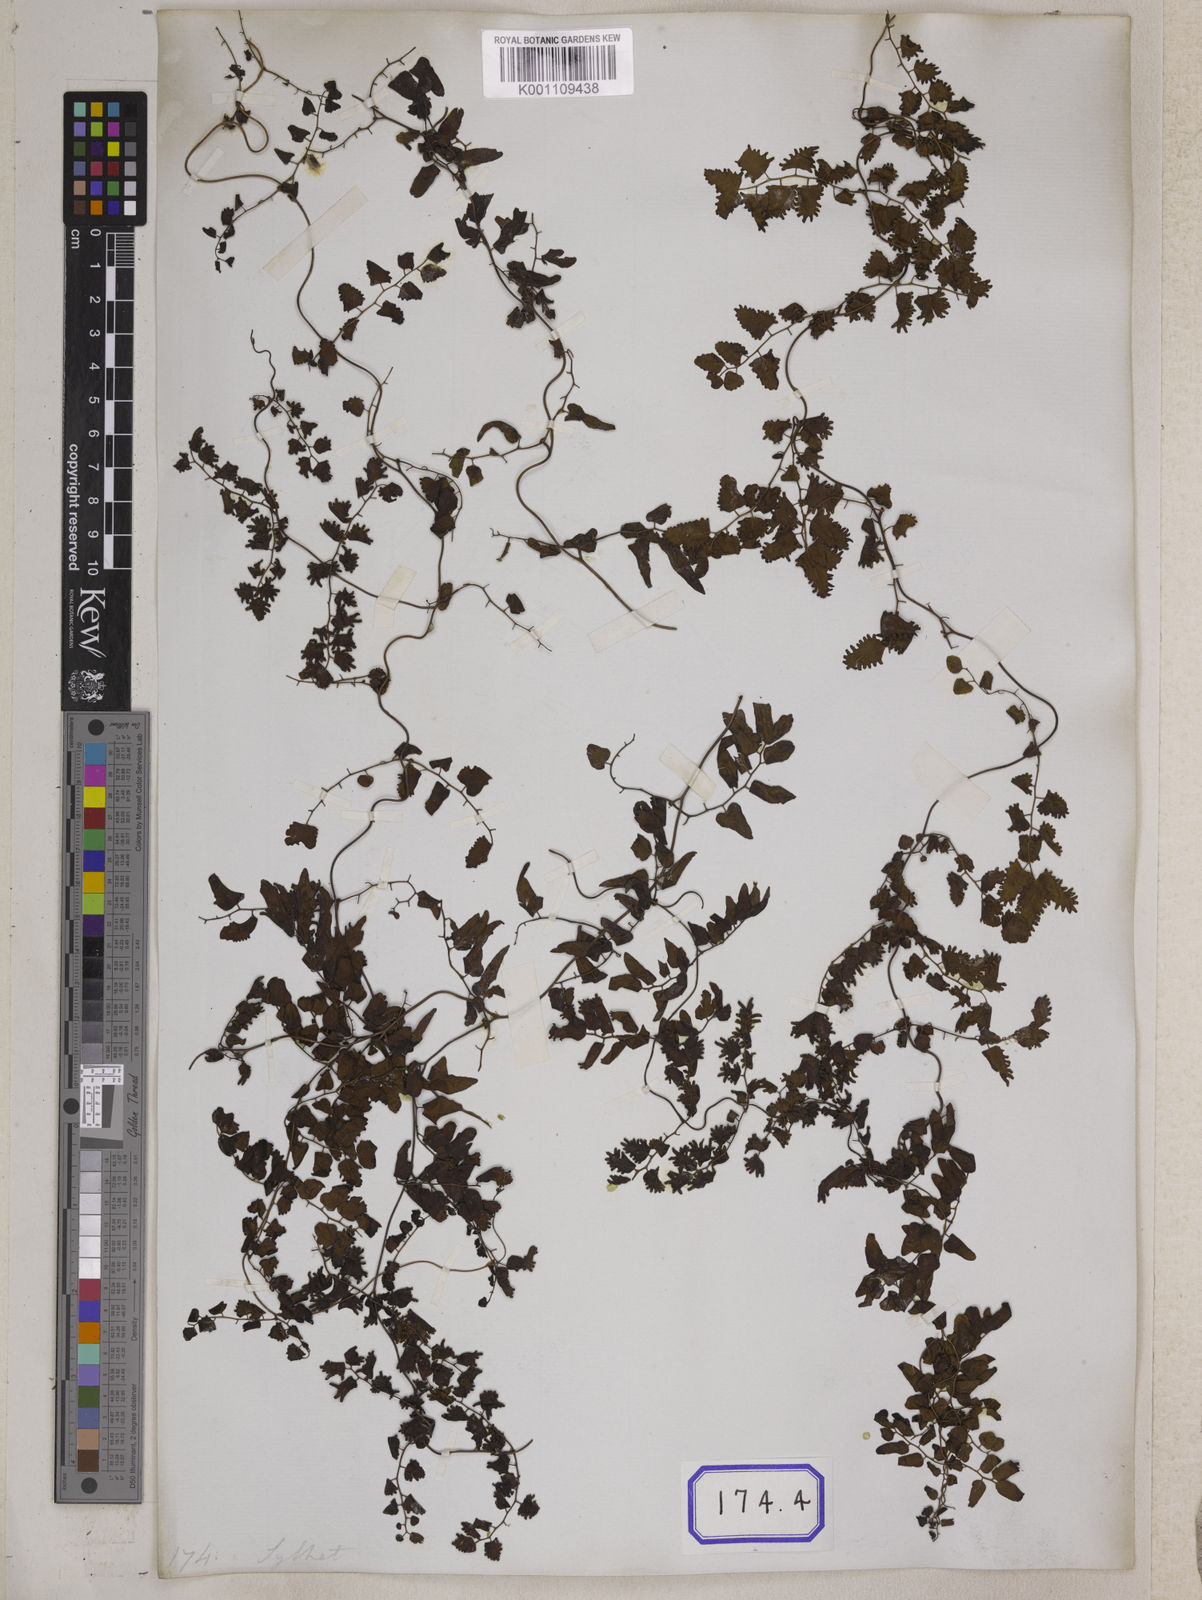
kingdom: Plantae
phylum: Tracheophyta
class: Polypodiopsida
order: Schizaeales
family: Lygodiaceae
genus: Lygodium
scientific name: Lygodium
